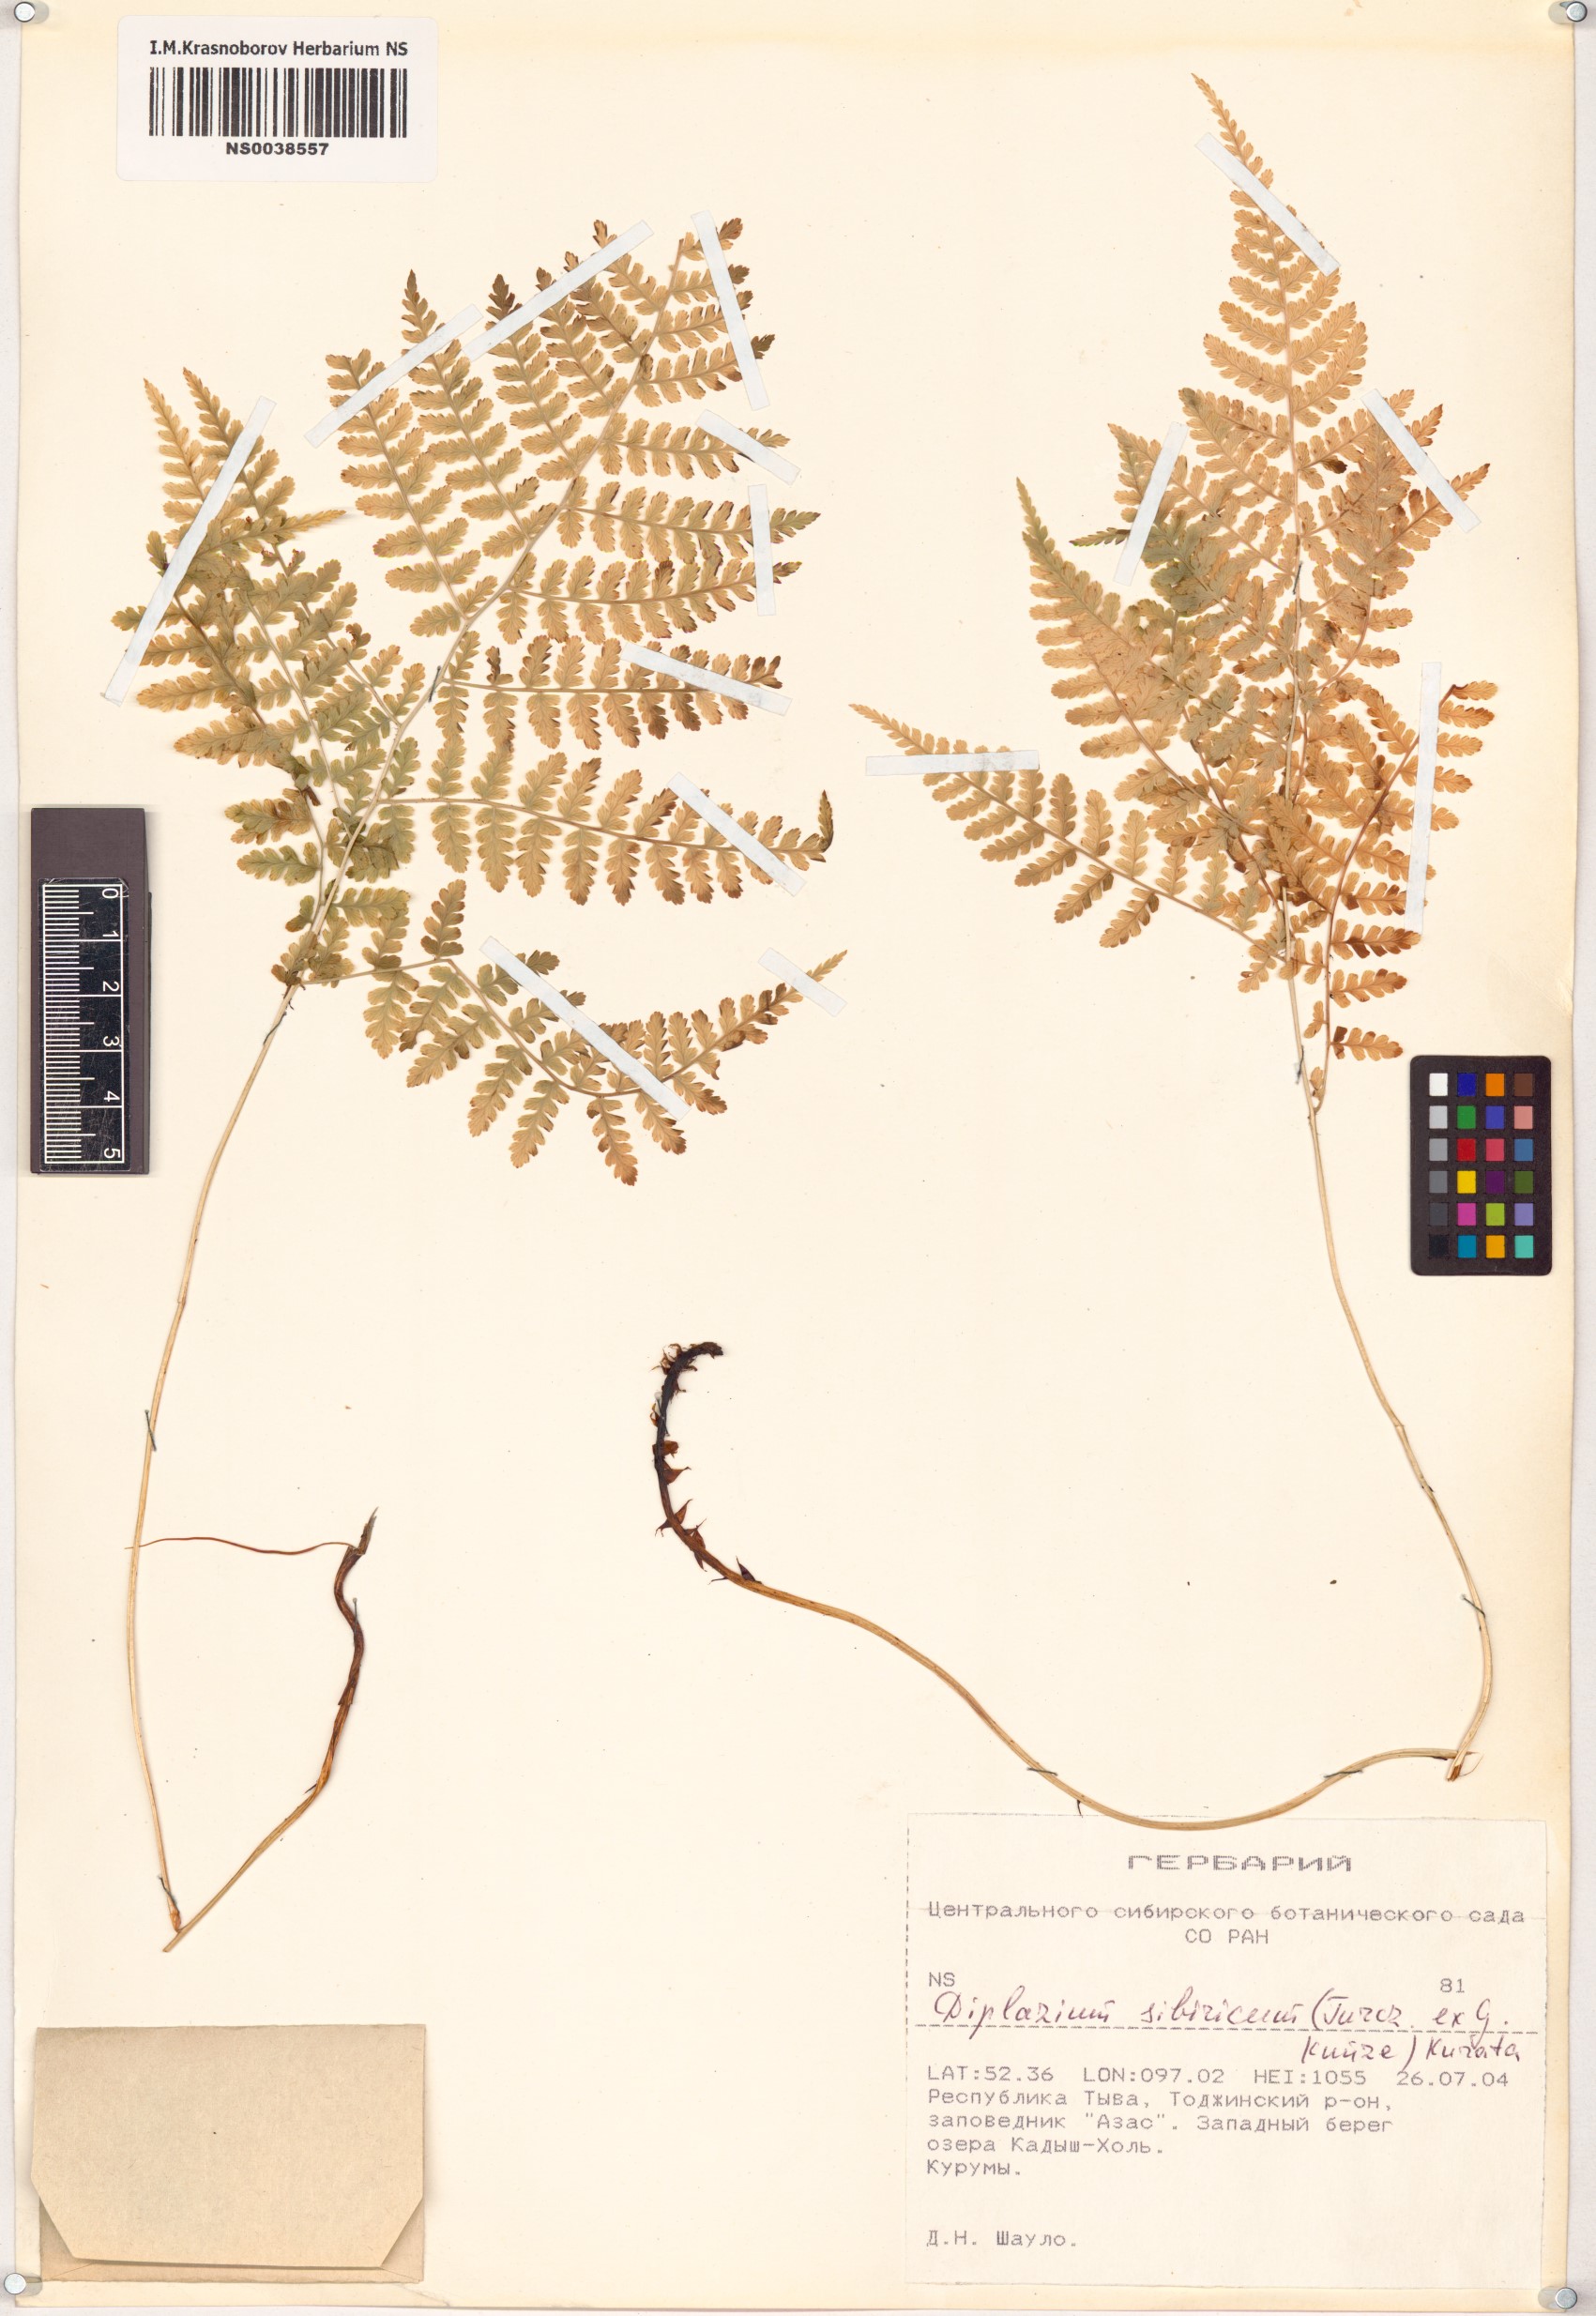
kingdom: Plantae
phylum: Tracheophyta
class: Polypodiopsida
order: Polypodiales
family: Athyriaceae
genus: Diplazium
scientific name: Diplazium sibiricum
